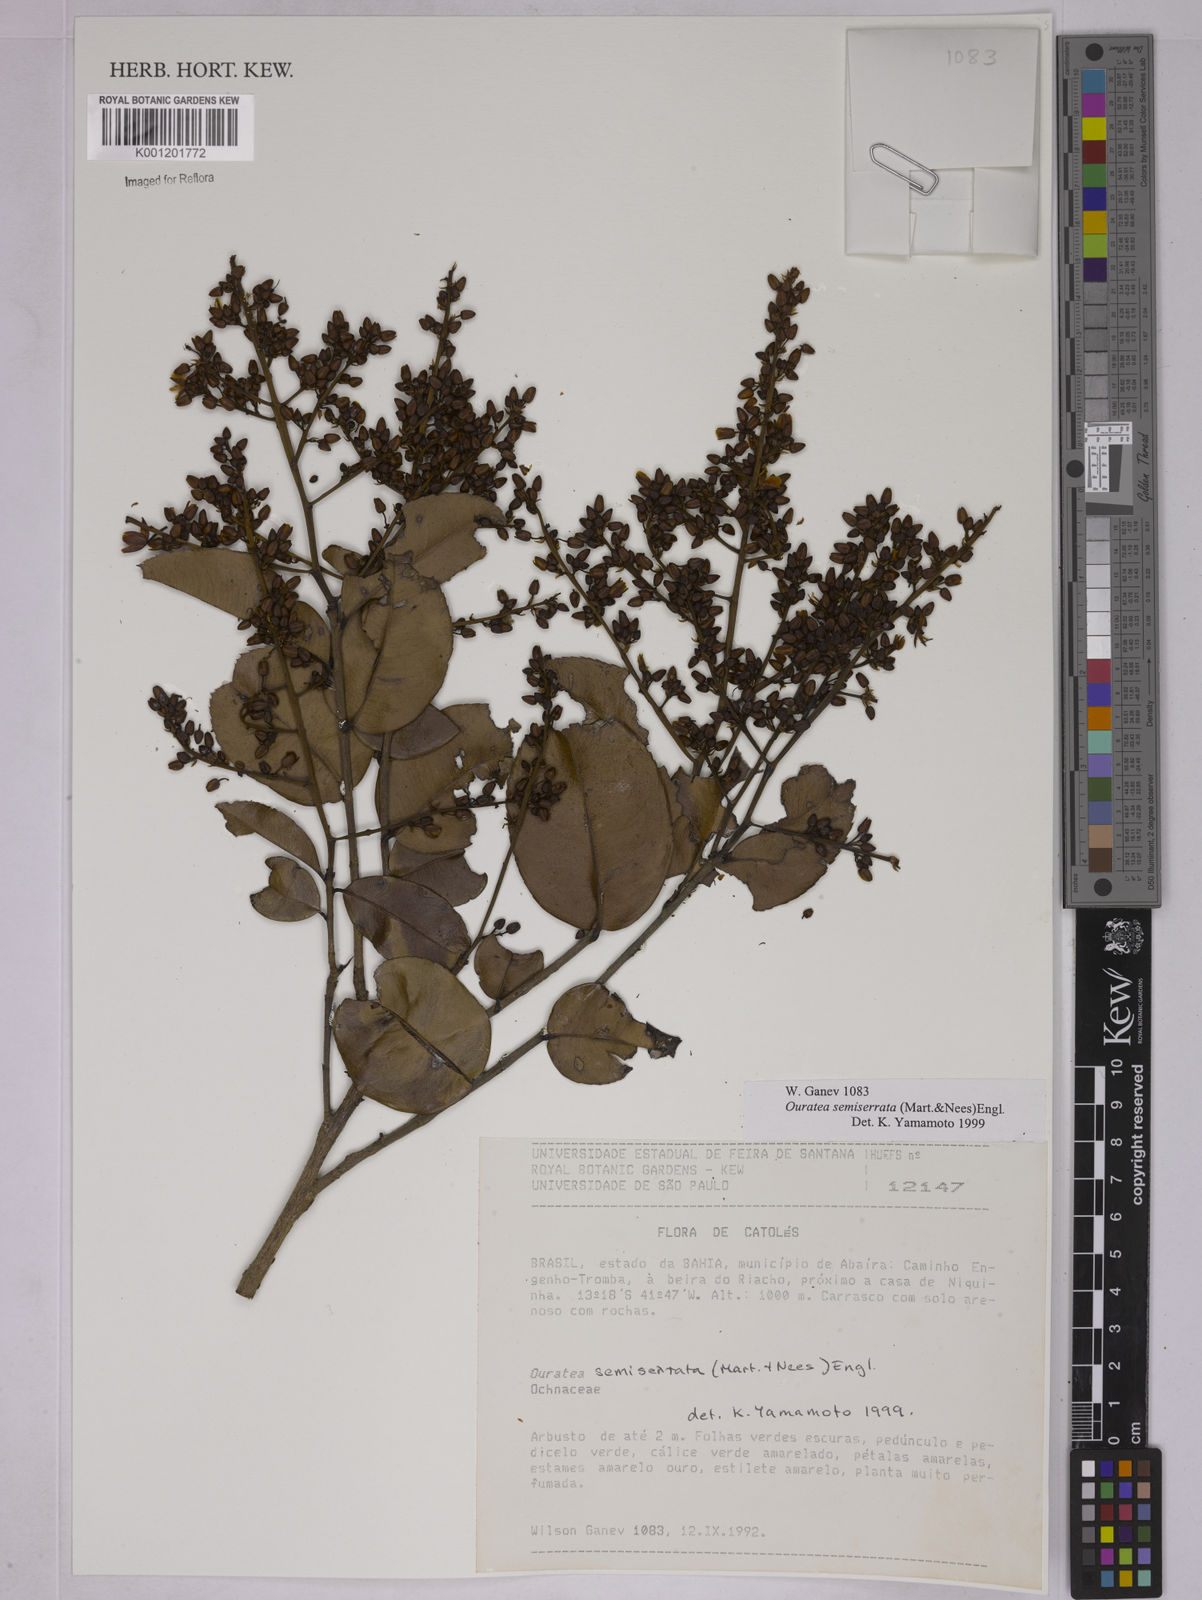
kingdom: Plantae
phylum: Tracheophyta
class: Magnoliopsida
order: Malpighiales
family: Ochnaceae
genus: Ouratea
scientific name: Ouratea semiserrata
